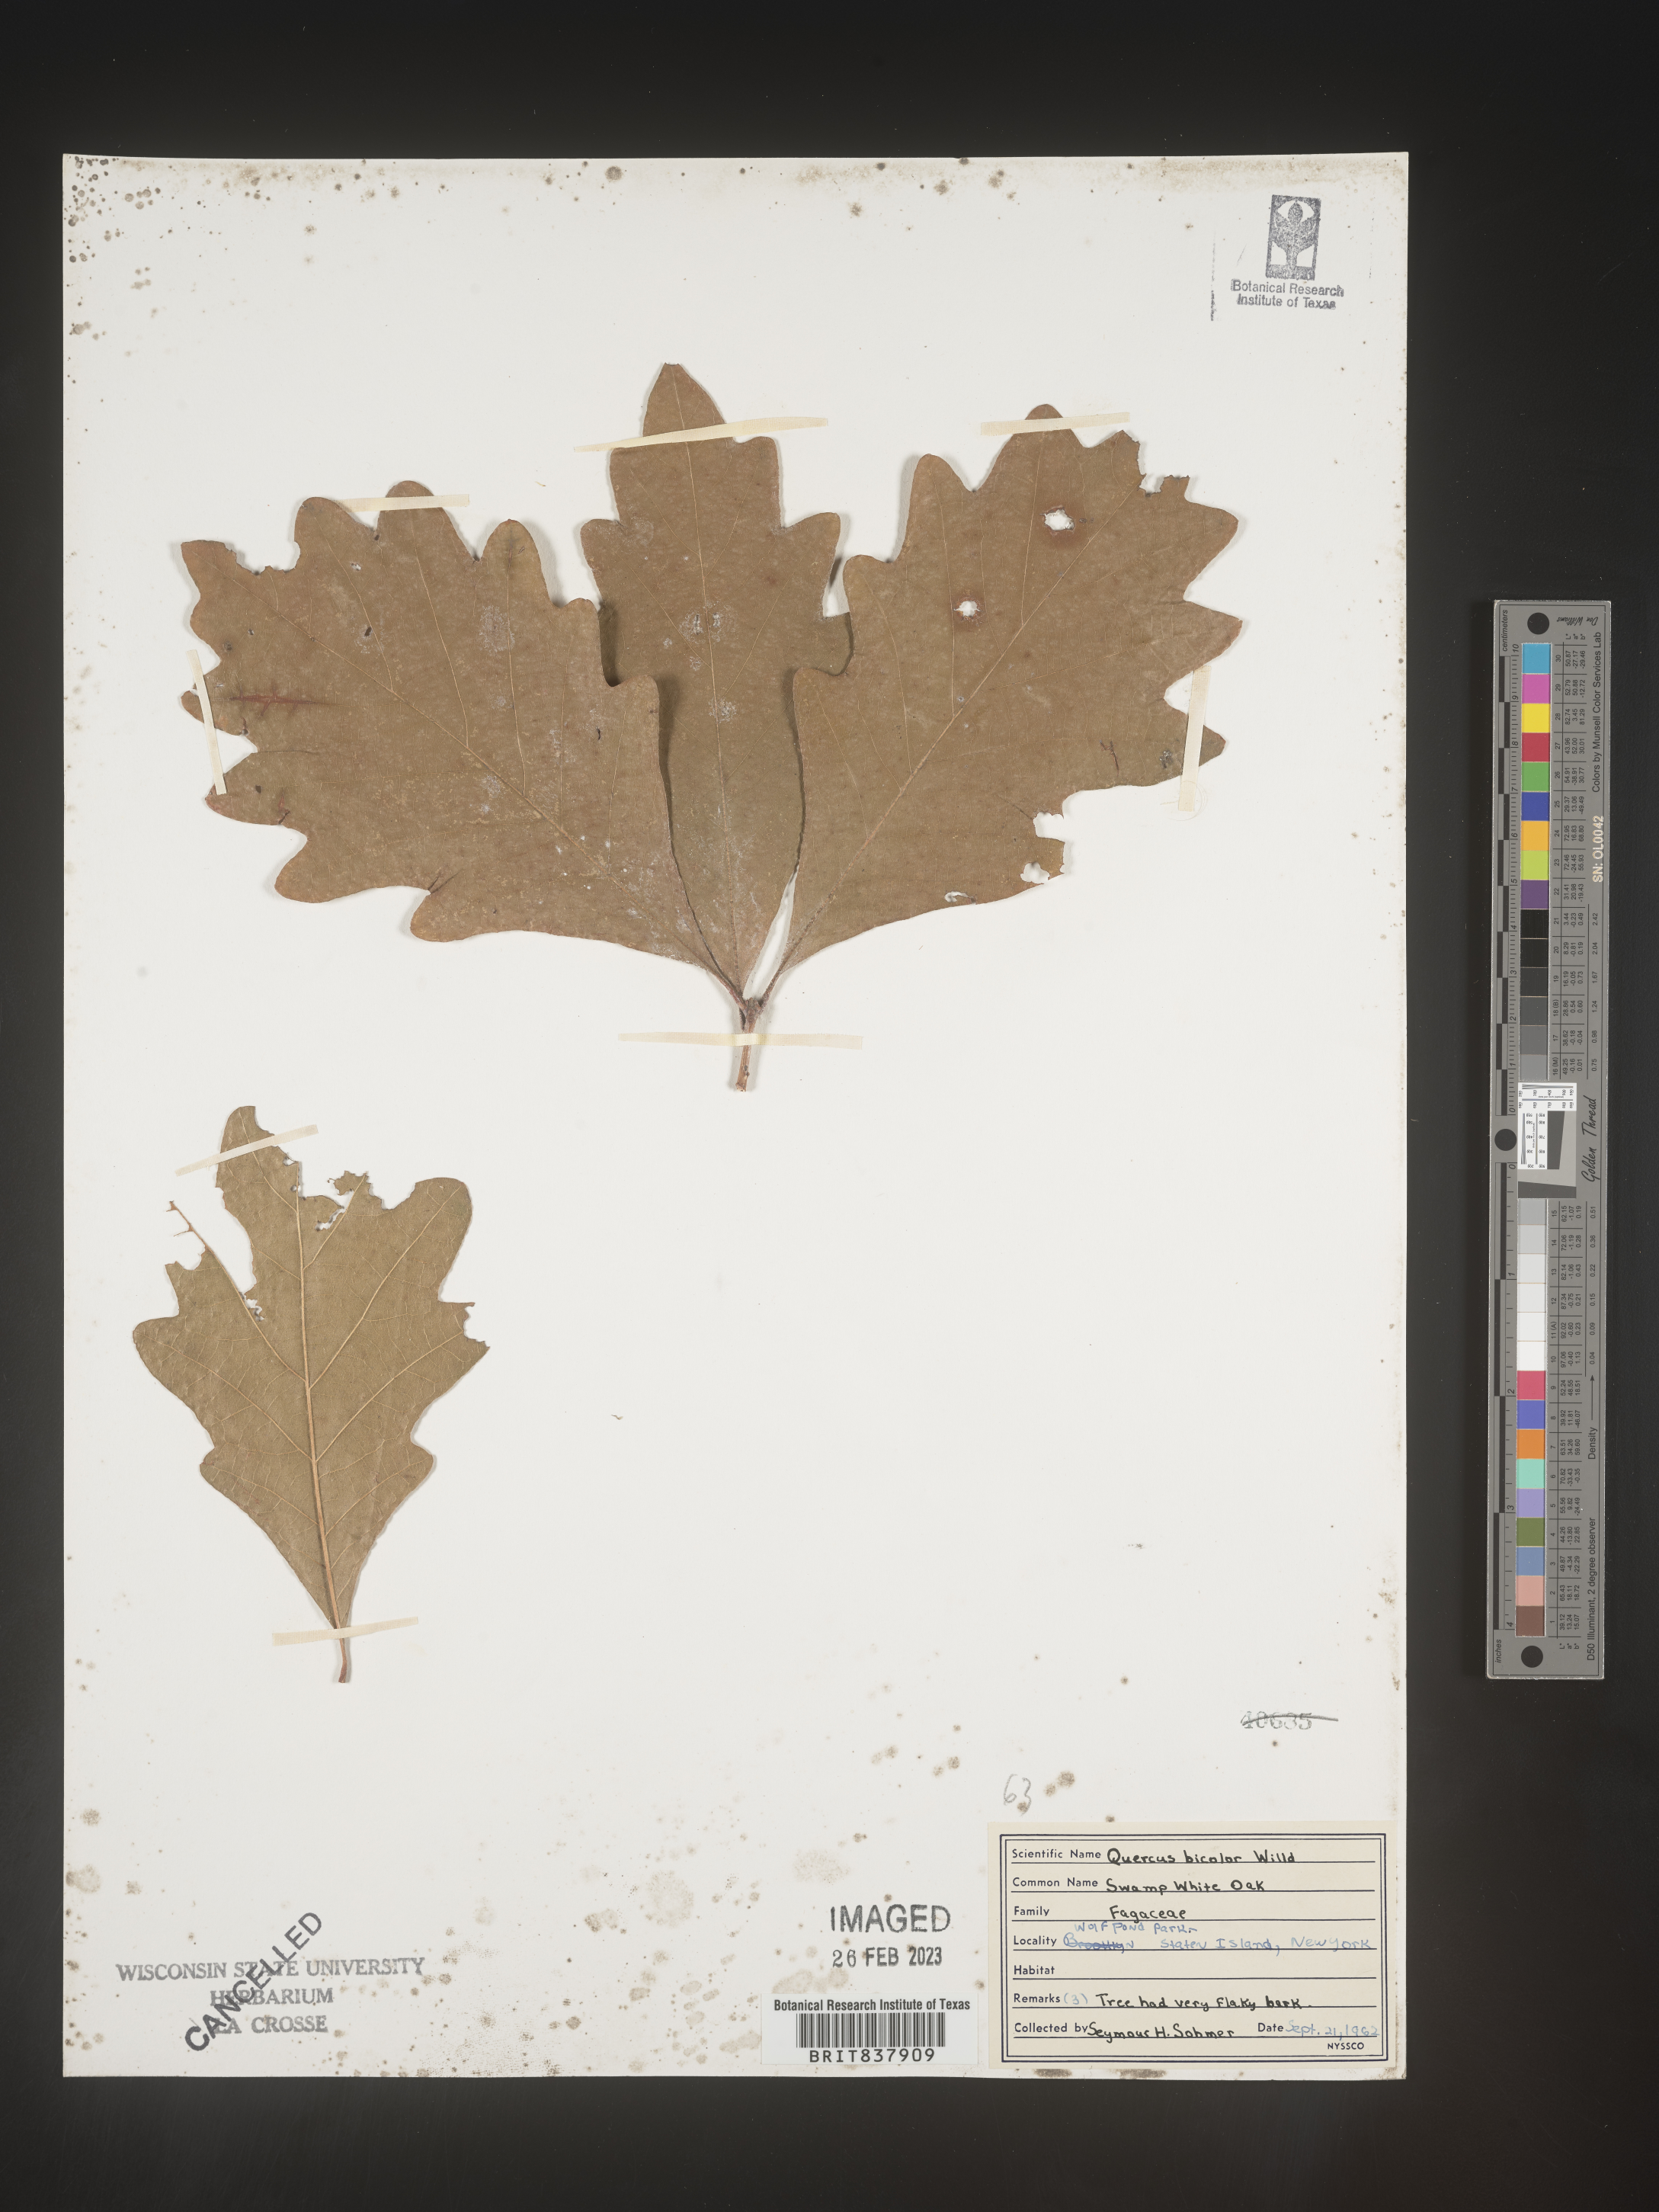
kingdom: Plantae
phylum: Tracheophyta
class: Magnoliopsida
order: Fagales
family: Fagaceae
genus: Quercus
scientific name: Quercus bicolor
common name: Swamp white oak
